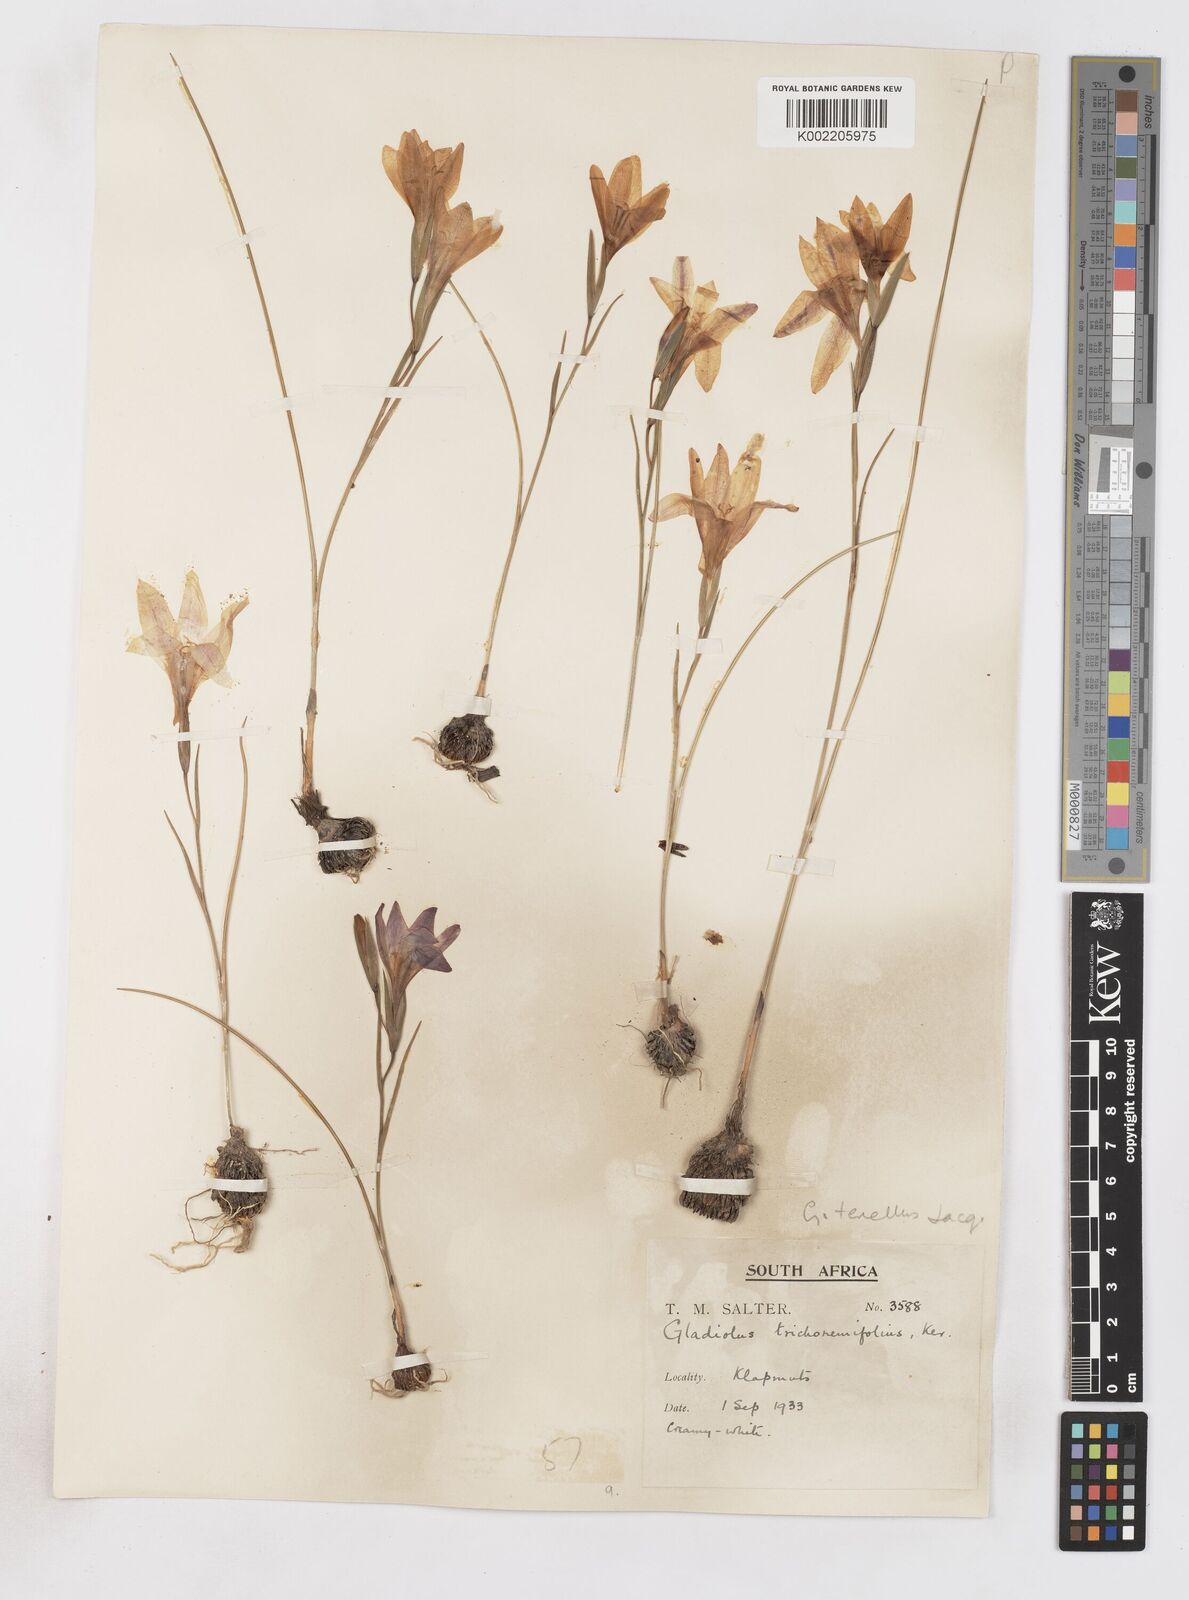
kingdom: Plantae
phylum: Tracheophyta
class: Liliopsida
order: Asparagales
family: Iridaceae
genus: Gladiolus
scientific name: Gladiolus carinatus
